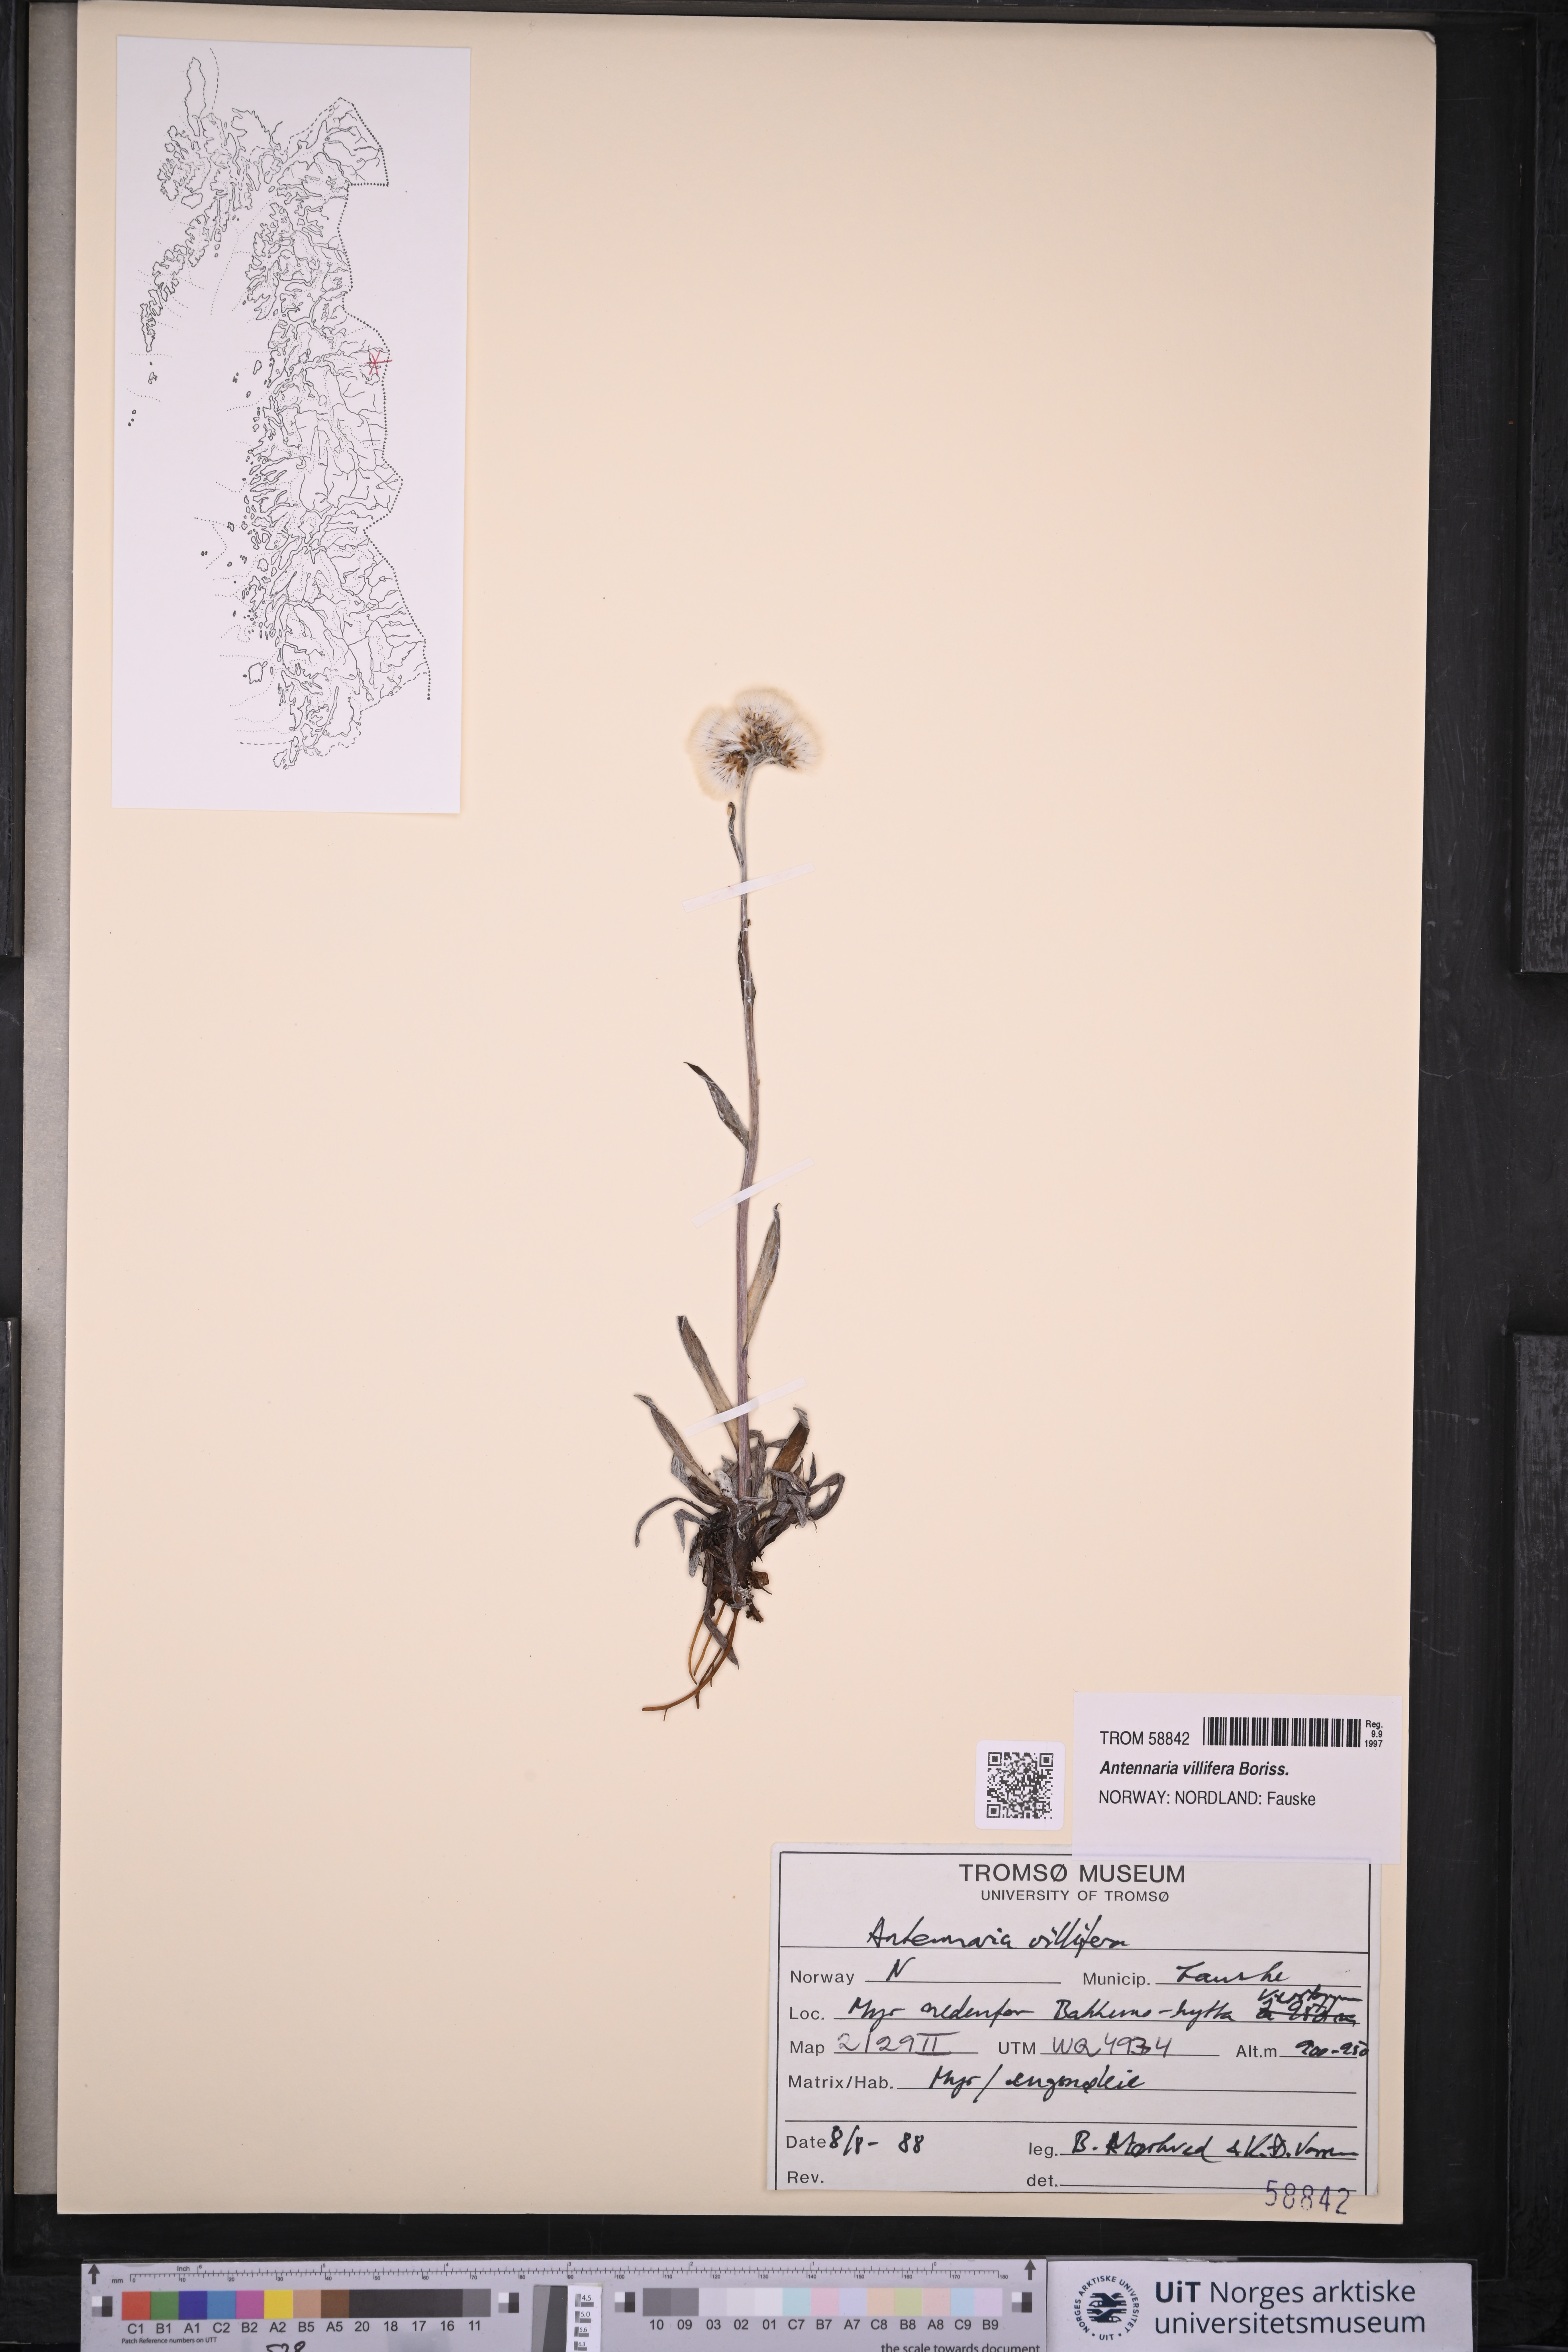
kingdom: Plantae
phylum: Tracheophyta
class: Magnoliopsida
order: Asterales
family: Asteraceae
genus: Antennaria
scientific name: Antennaria lanata
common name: Woolly pussytoes
